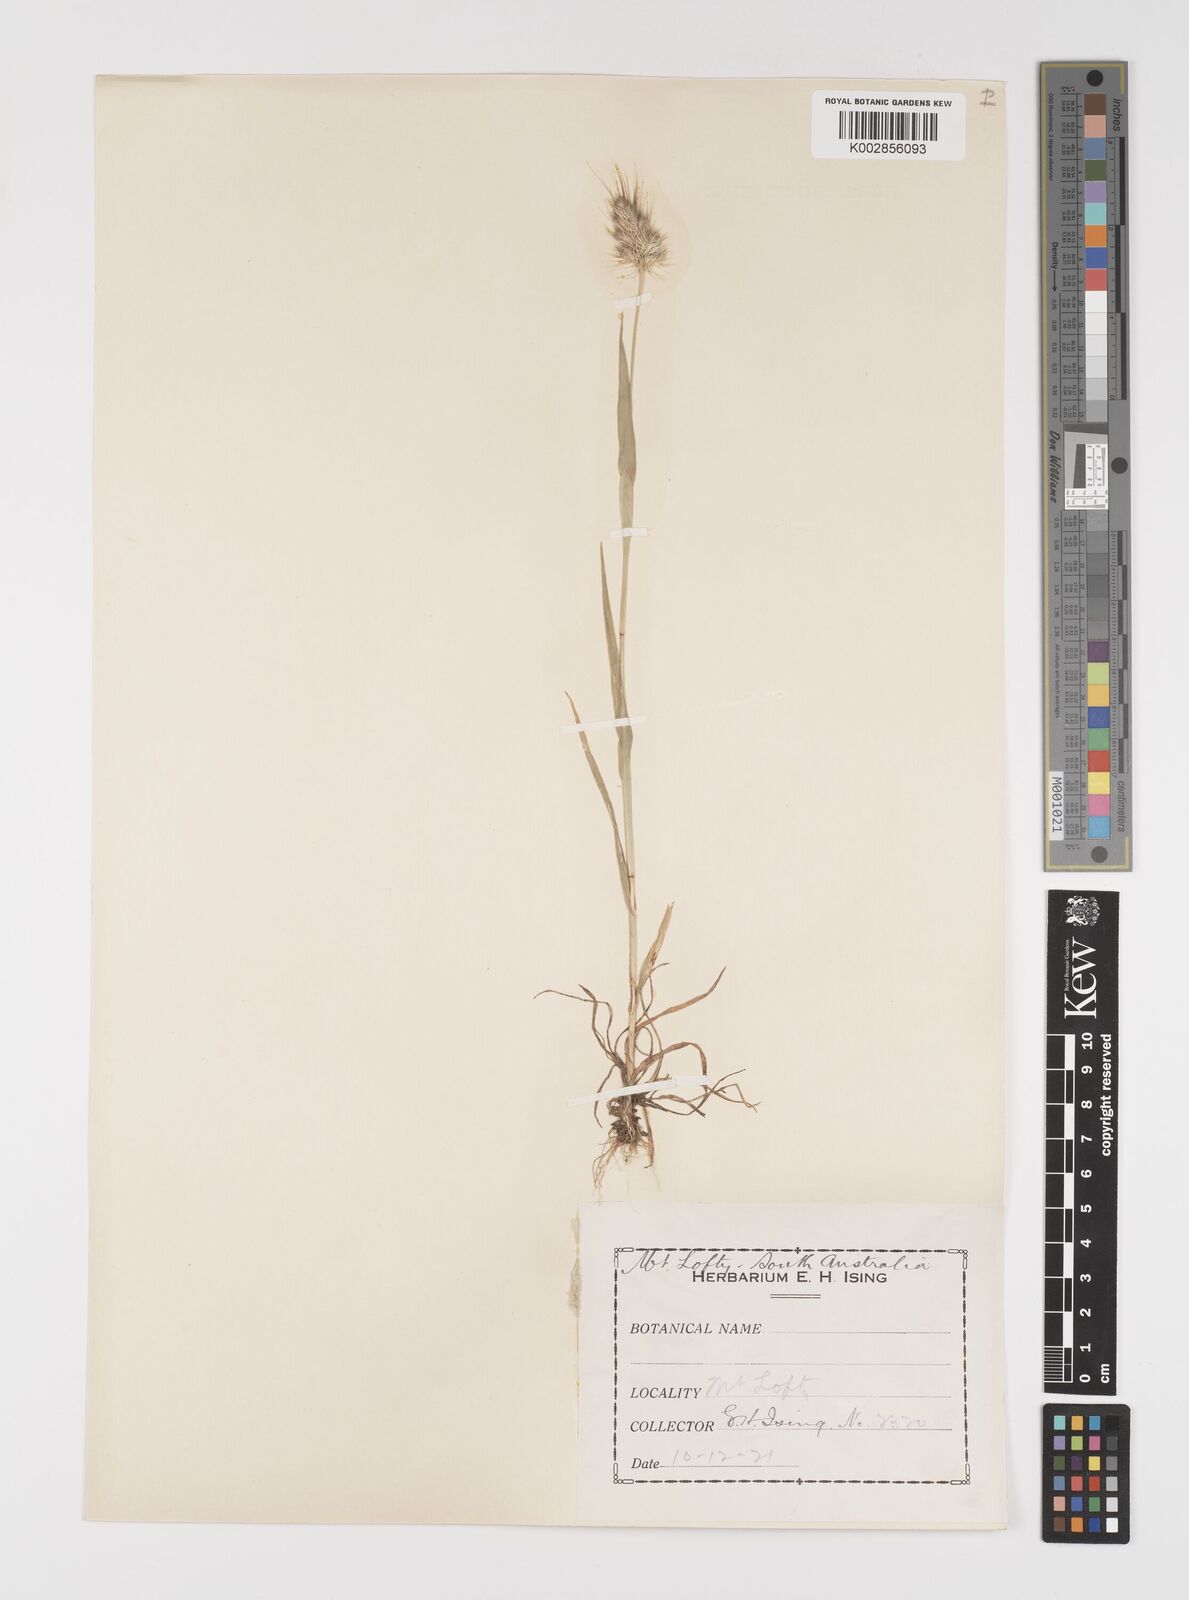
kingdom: Plantae
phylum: Tracheophyta
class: Liliopsida
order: Poales
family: Poaceae
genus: Cynosurus
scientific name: Cynosurus echinatus
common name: Rough dog's-tail
